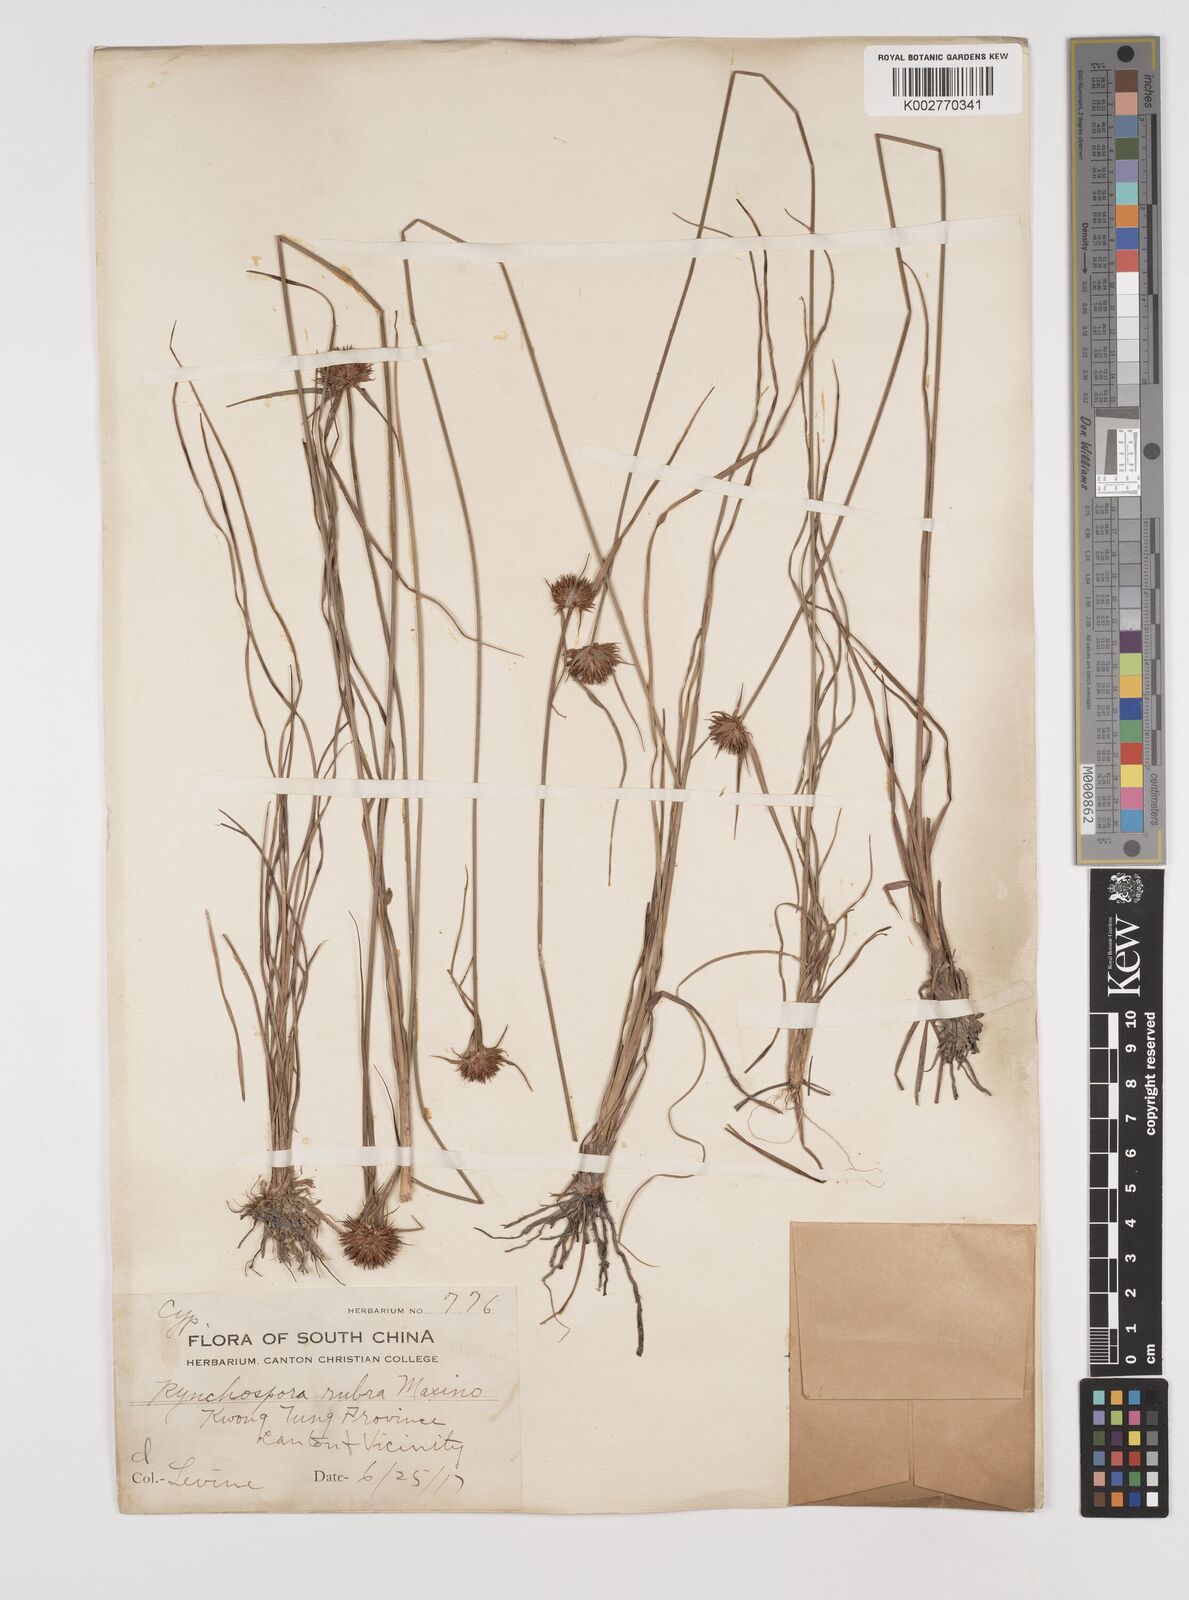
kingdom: Plantae
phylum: Tracheophyta
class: Liliopsida
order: Poales
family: Cyperaceae
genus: Rhynchospora
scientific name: Rhynchospora rubra
